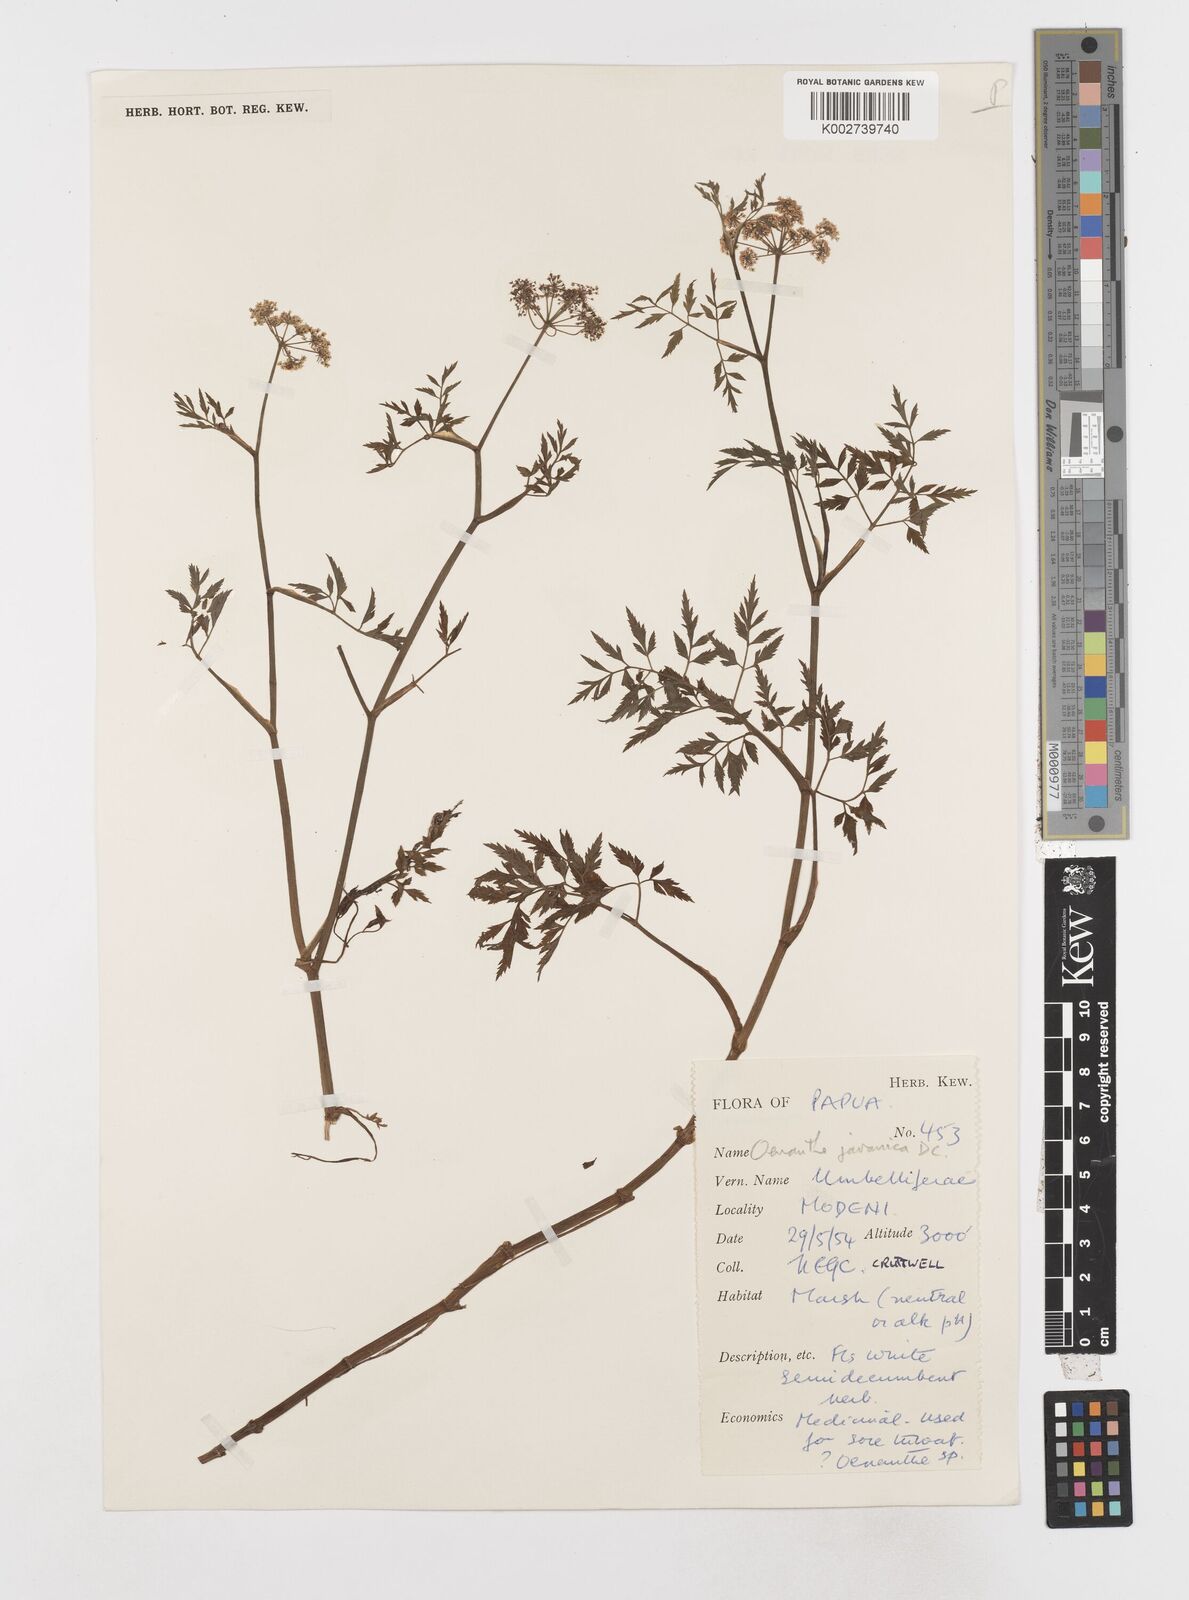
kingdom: Plantae
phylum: Tracheophyta
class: Magnoliopsida
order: Apiales
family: Apiaceae
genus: Oenanthe
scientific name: Oenanthe javanica
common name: Java water-dropwort
